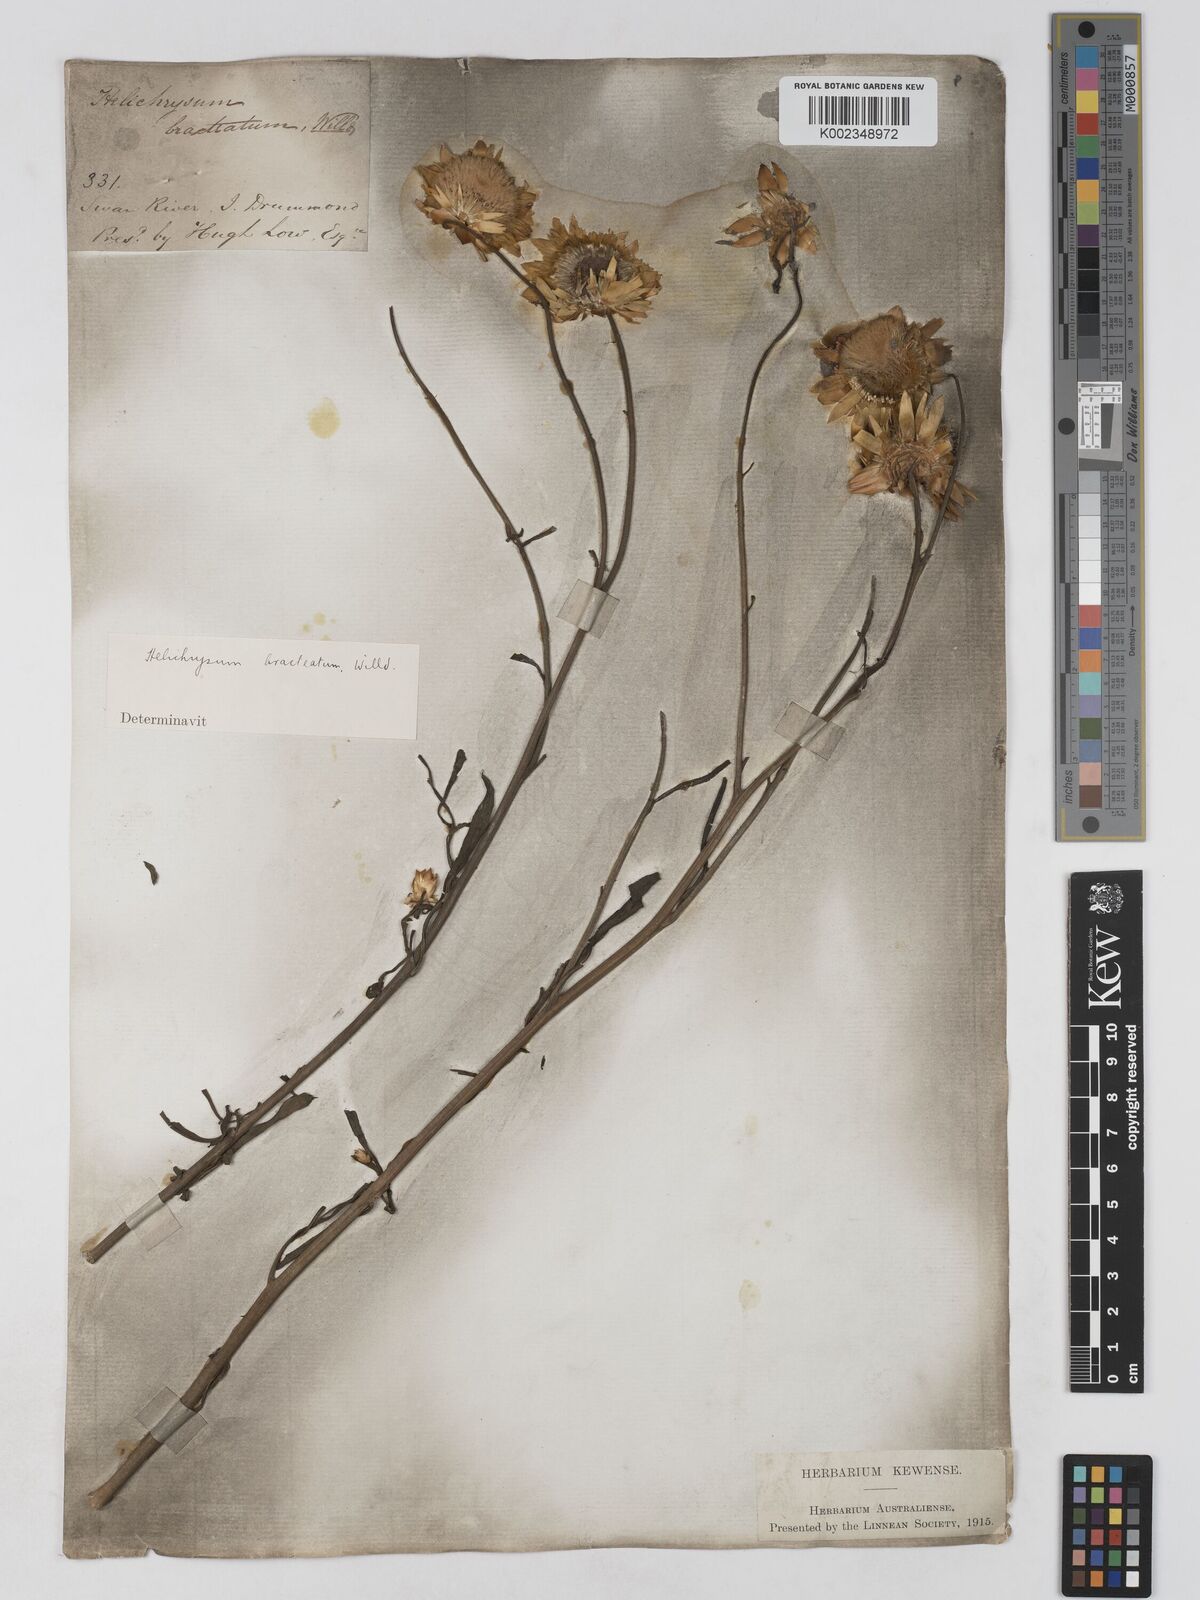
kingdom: Plantae
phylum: Tracheophyta
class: Magnoliopsida
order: Asterales
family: Asteraceae
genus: Xerochrysum
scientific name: Xerochrysum bracteatum
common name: Bracted strawflower
